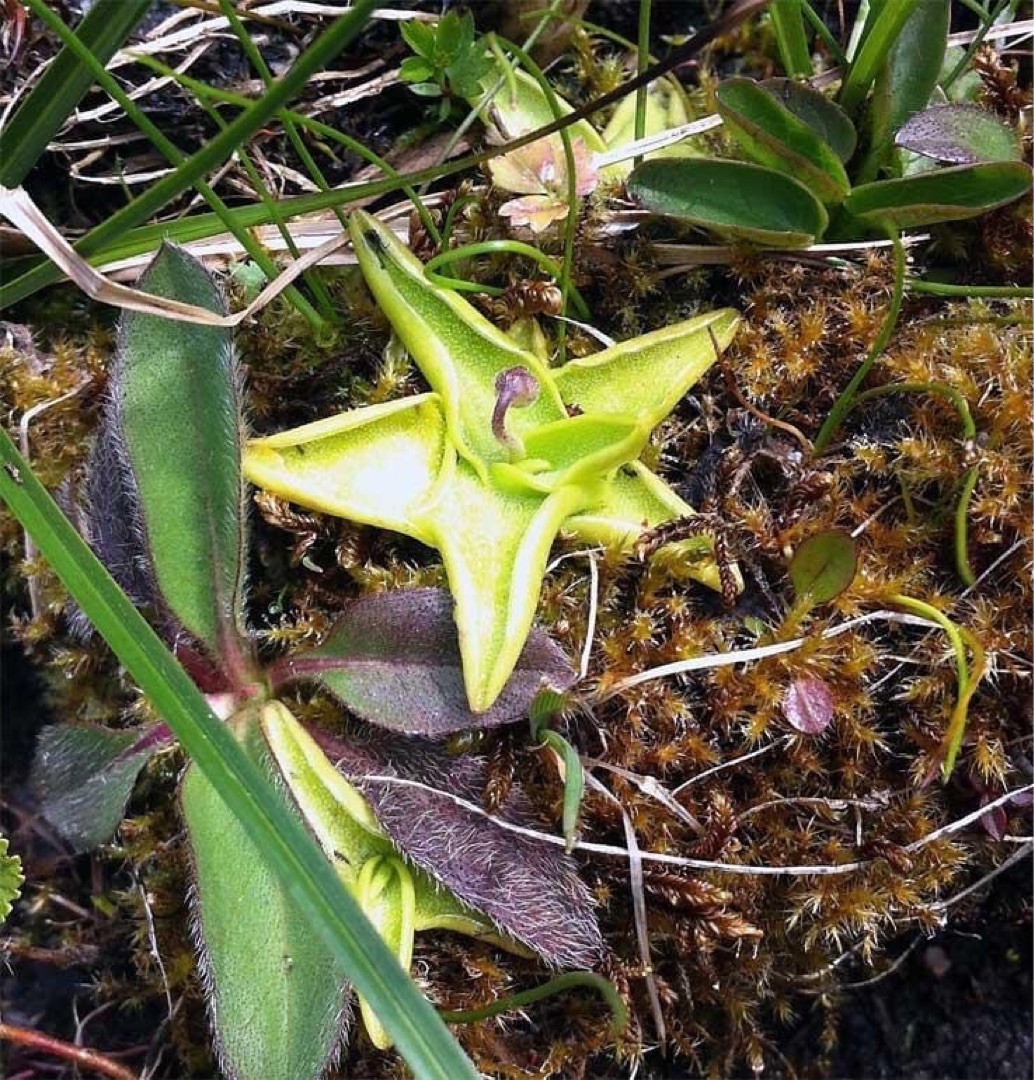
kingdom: Plantae
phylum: Tracheophyta
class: Magnoliopsida
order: Lamiales
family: Lentibulariaceae
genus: Pinguicula
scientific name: Pinguicula vulgaris
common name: Vibefedt
